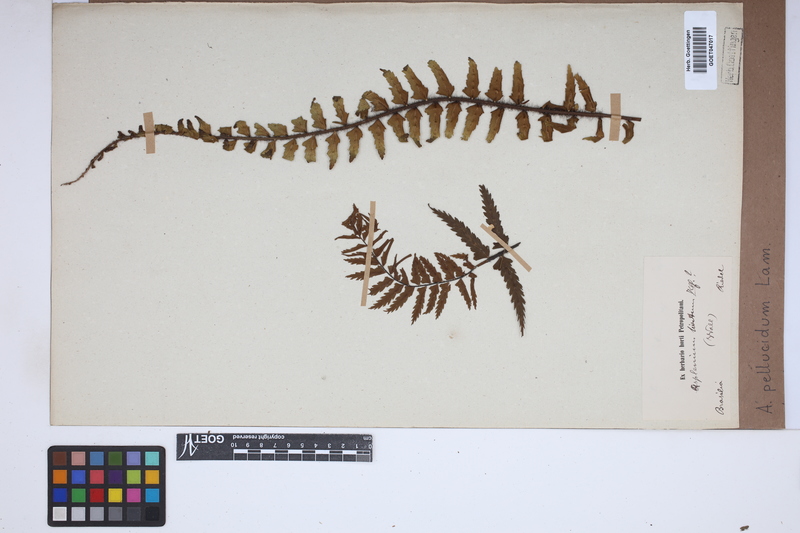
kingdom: Plantae
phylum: Tracheophyta
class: Polypodiopsida
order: Polypodiales
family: Aspleniaceae
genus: Asplenium
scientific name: Asplenium pellucidum
